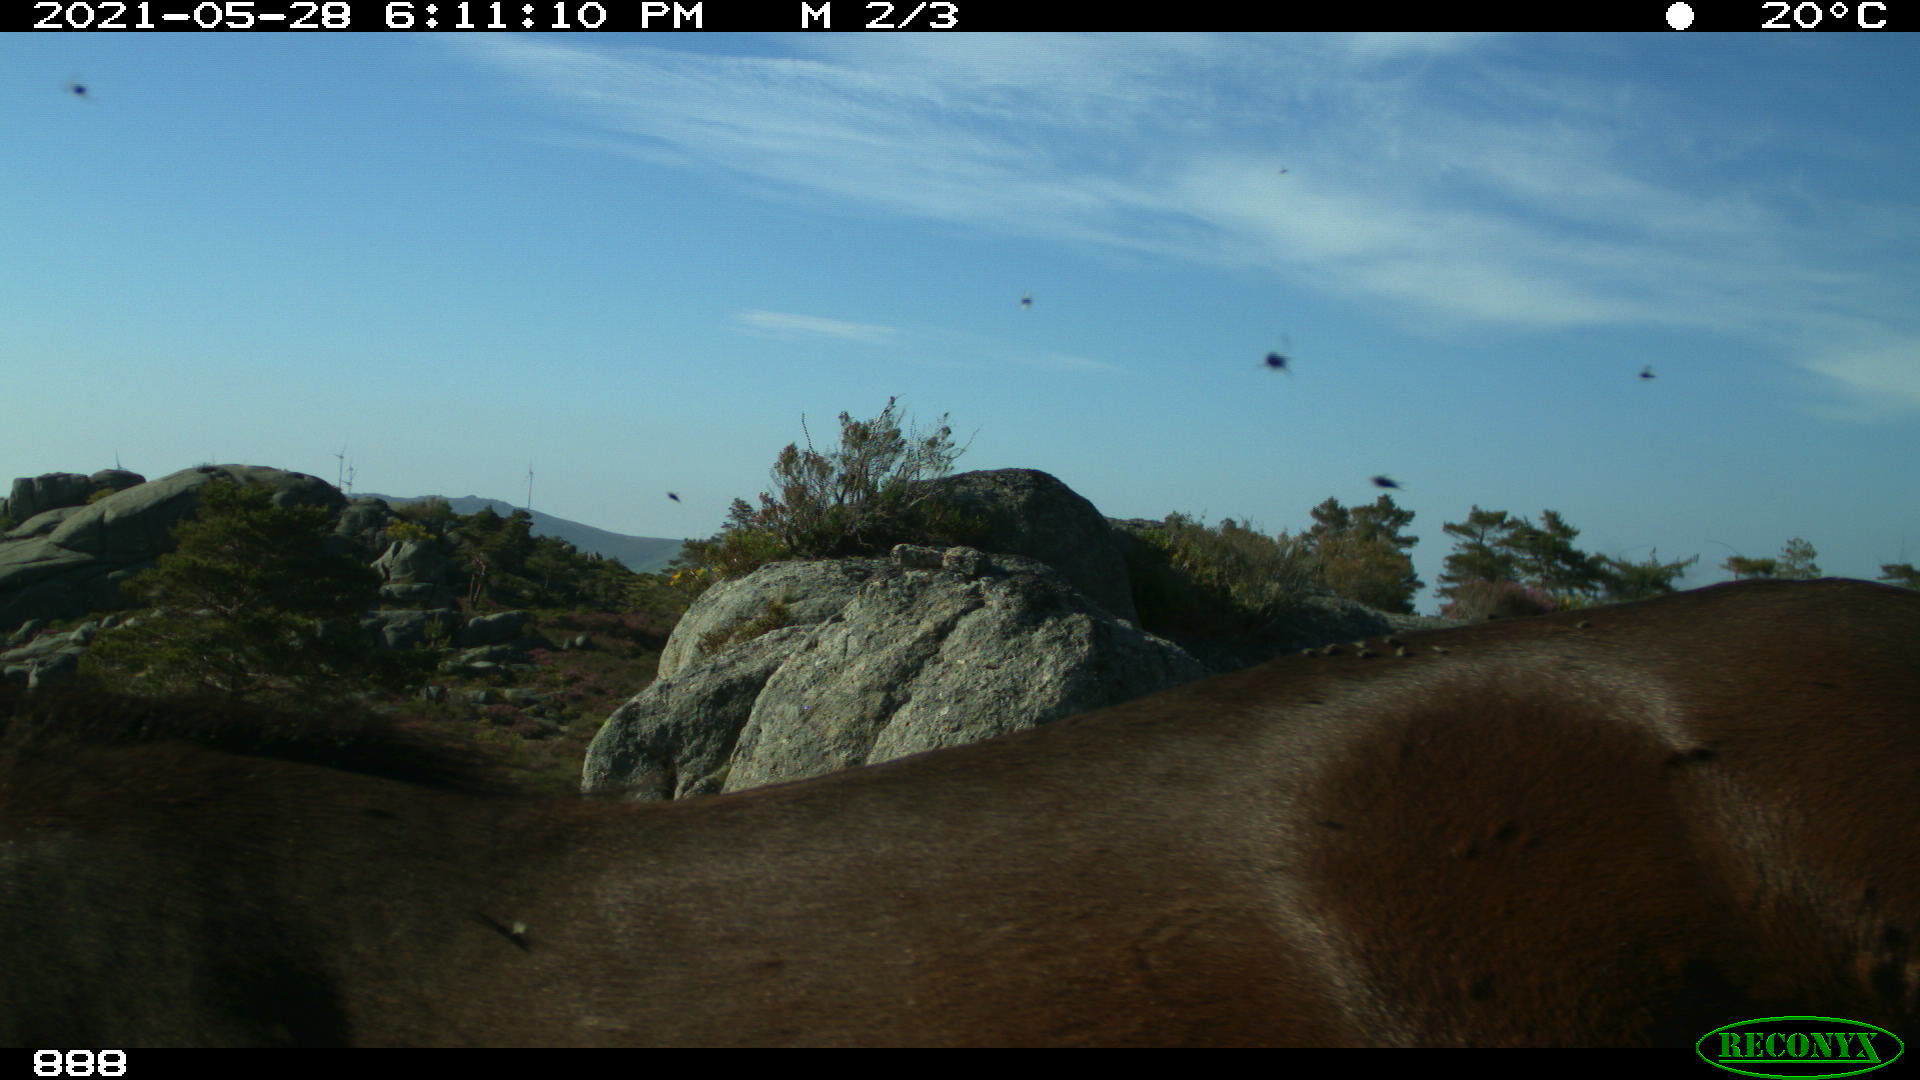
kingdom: Animalia
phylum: Chordata
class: Mammalia
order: Perissodactyla
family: Equidae
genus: Equus
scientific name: Equus caballus
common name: Horse
